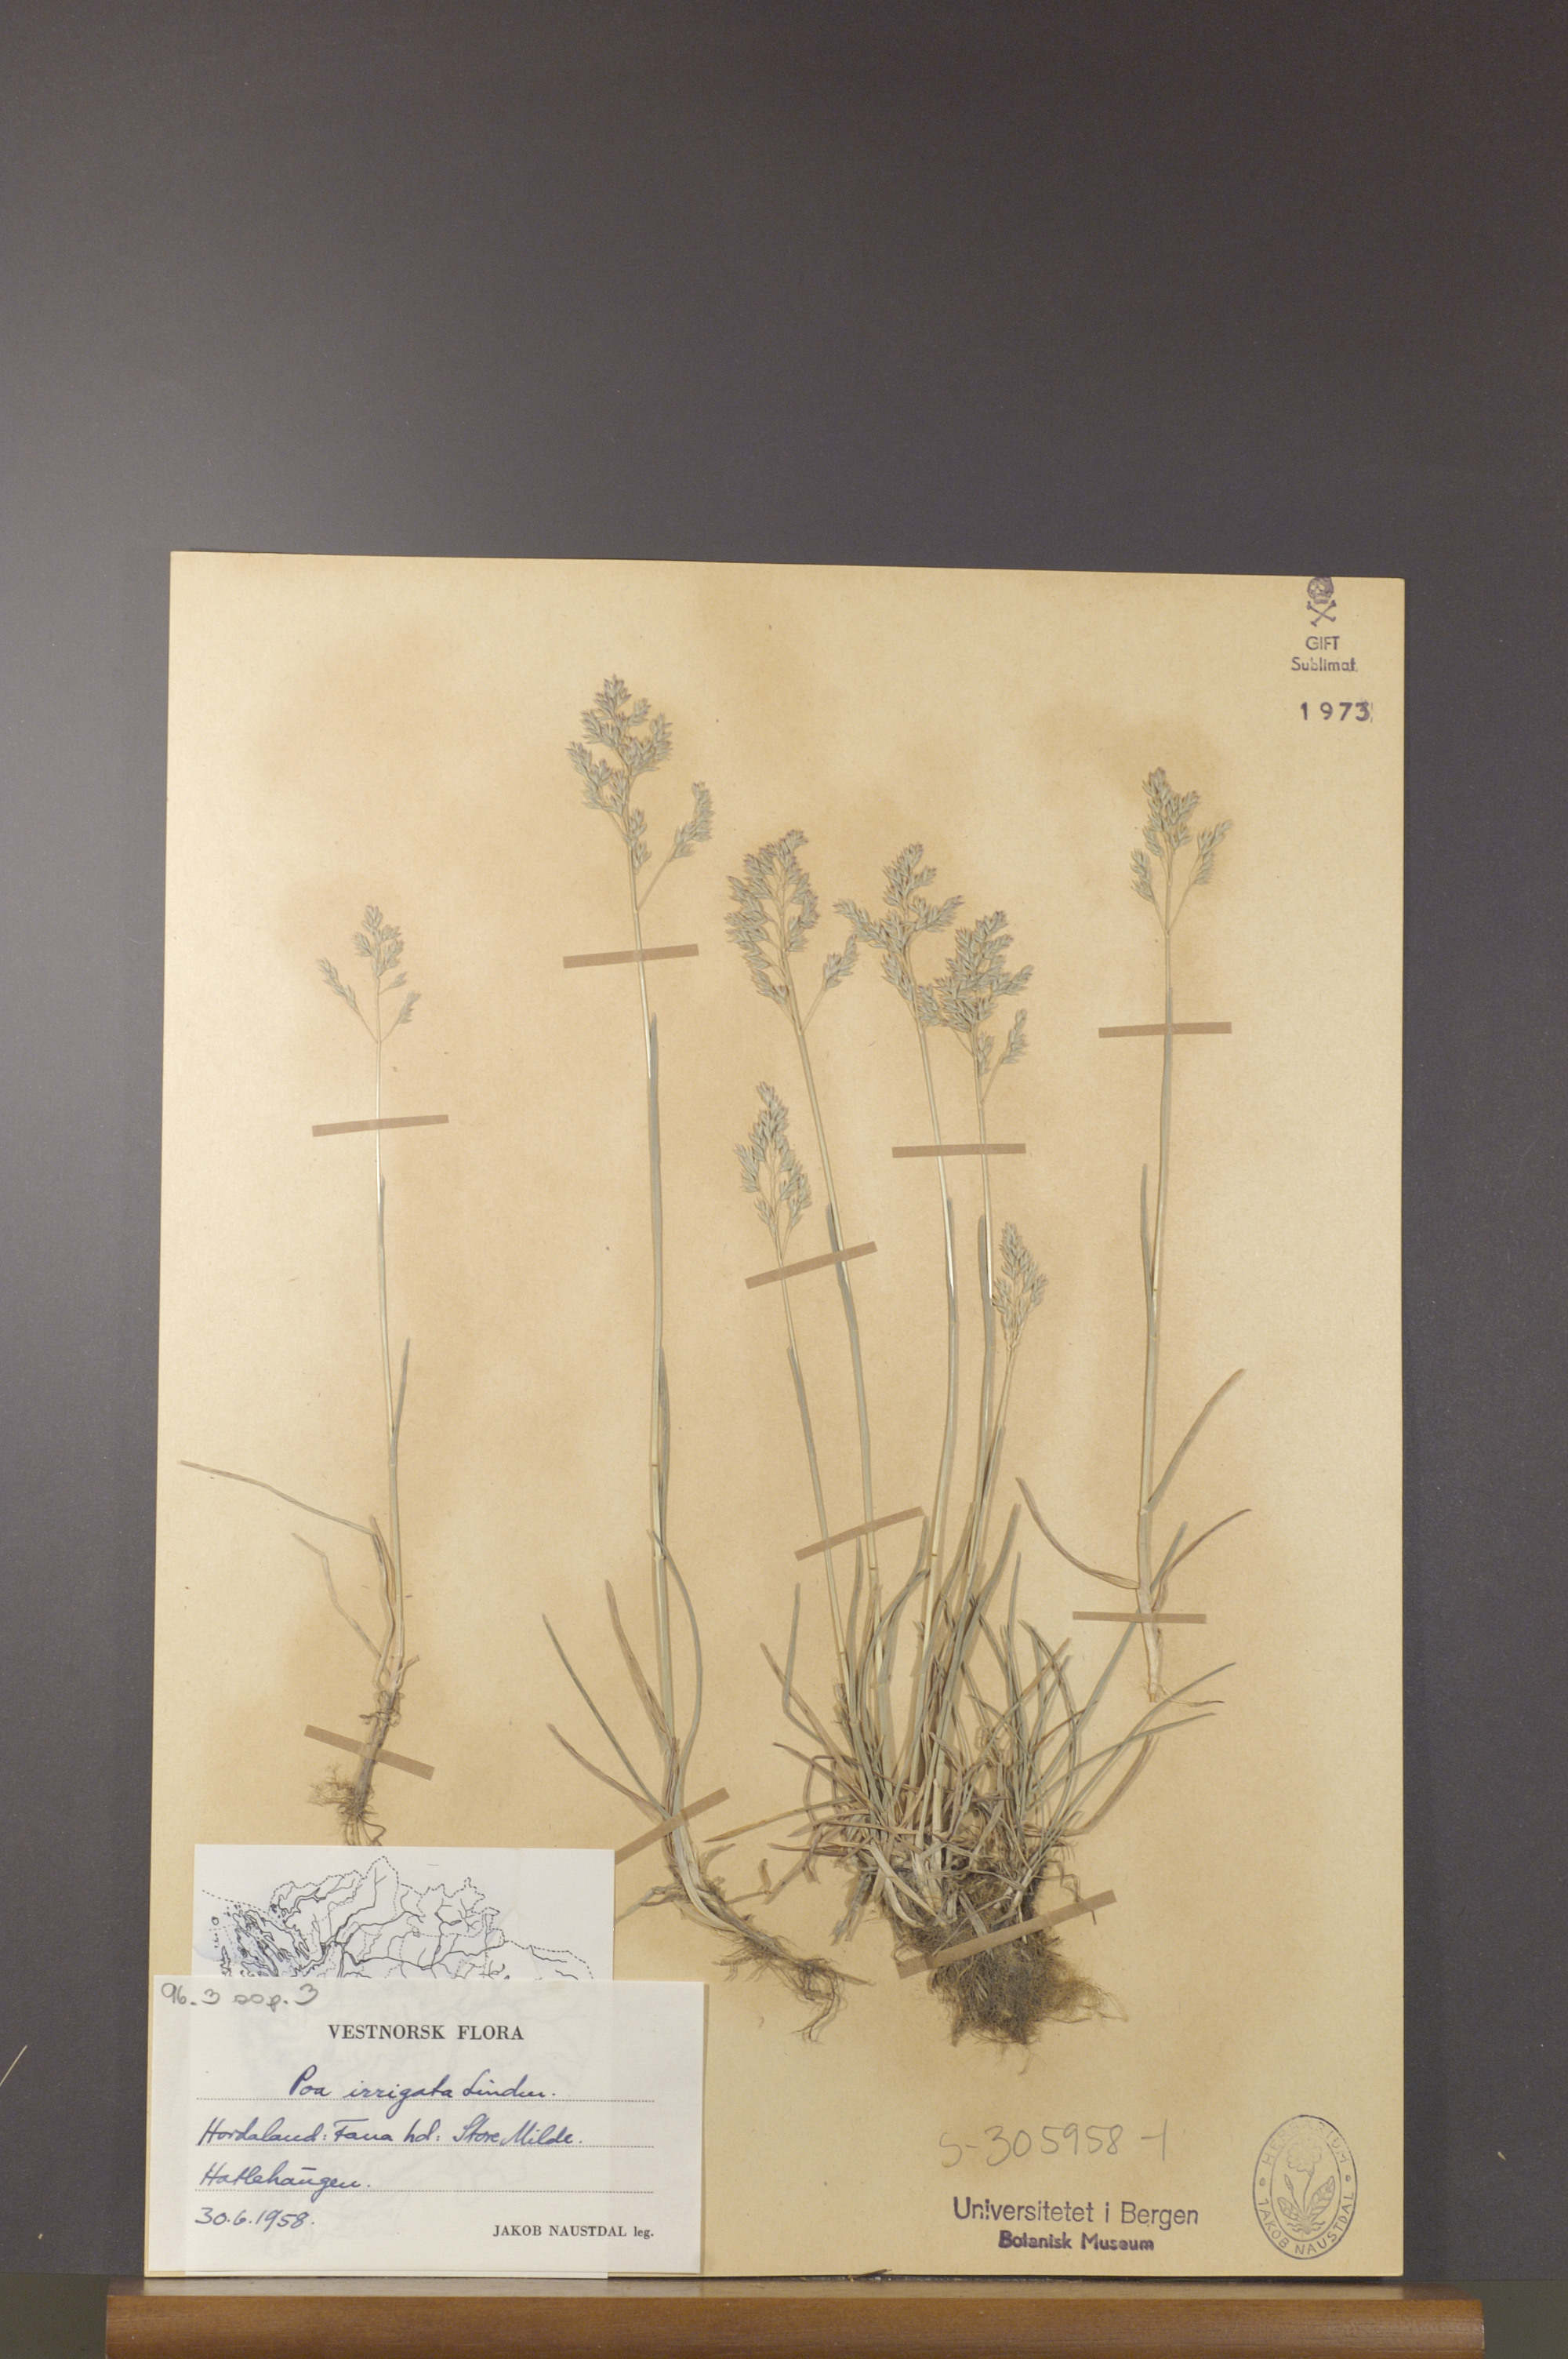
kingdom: Plantae
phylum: Tracheophyta
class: Liliopsida
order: Poales
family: Poaceae
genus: Poa
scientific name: Poa humilis
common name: Spreading meadow-grass
